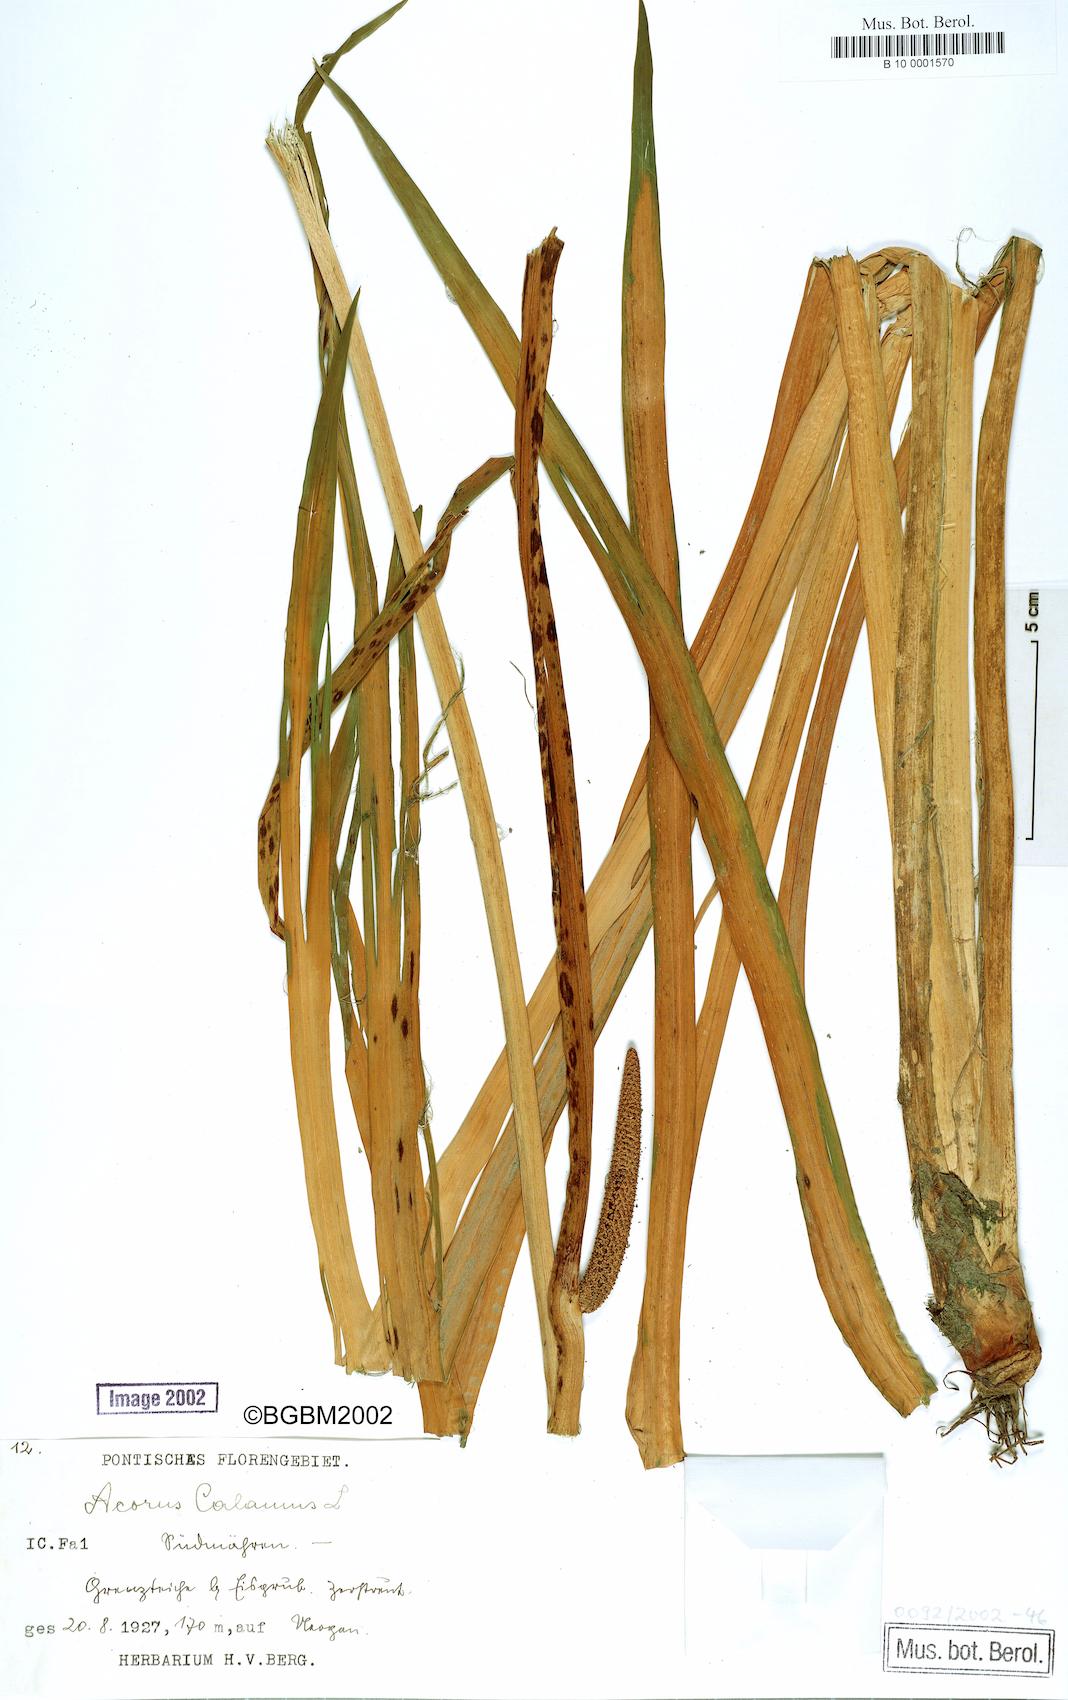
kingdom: Plantae
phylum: Tracheophyta
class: Liliopsida
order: Acorales
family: Acoraceae
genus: Acorus
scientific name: Acorus calamus
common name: Sweet-flag
